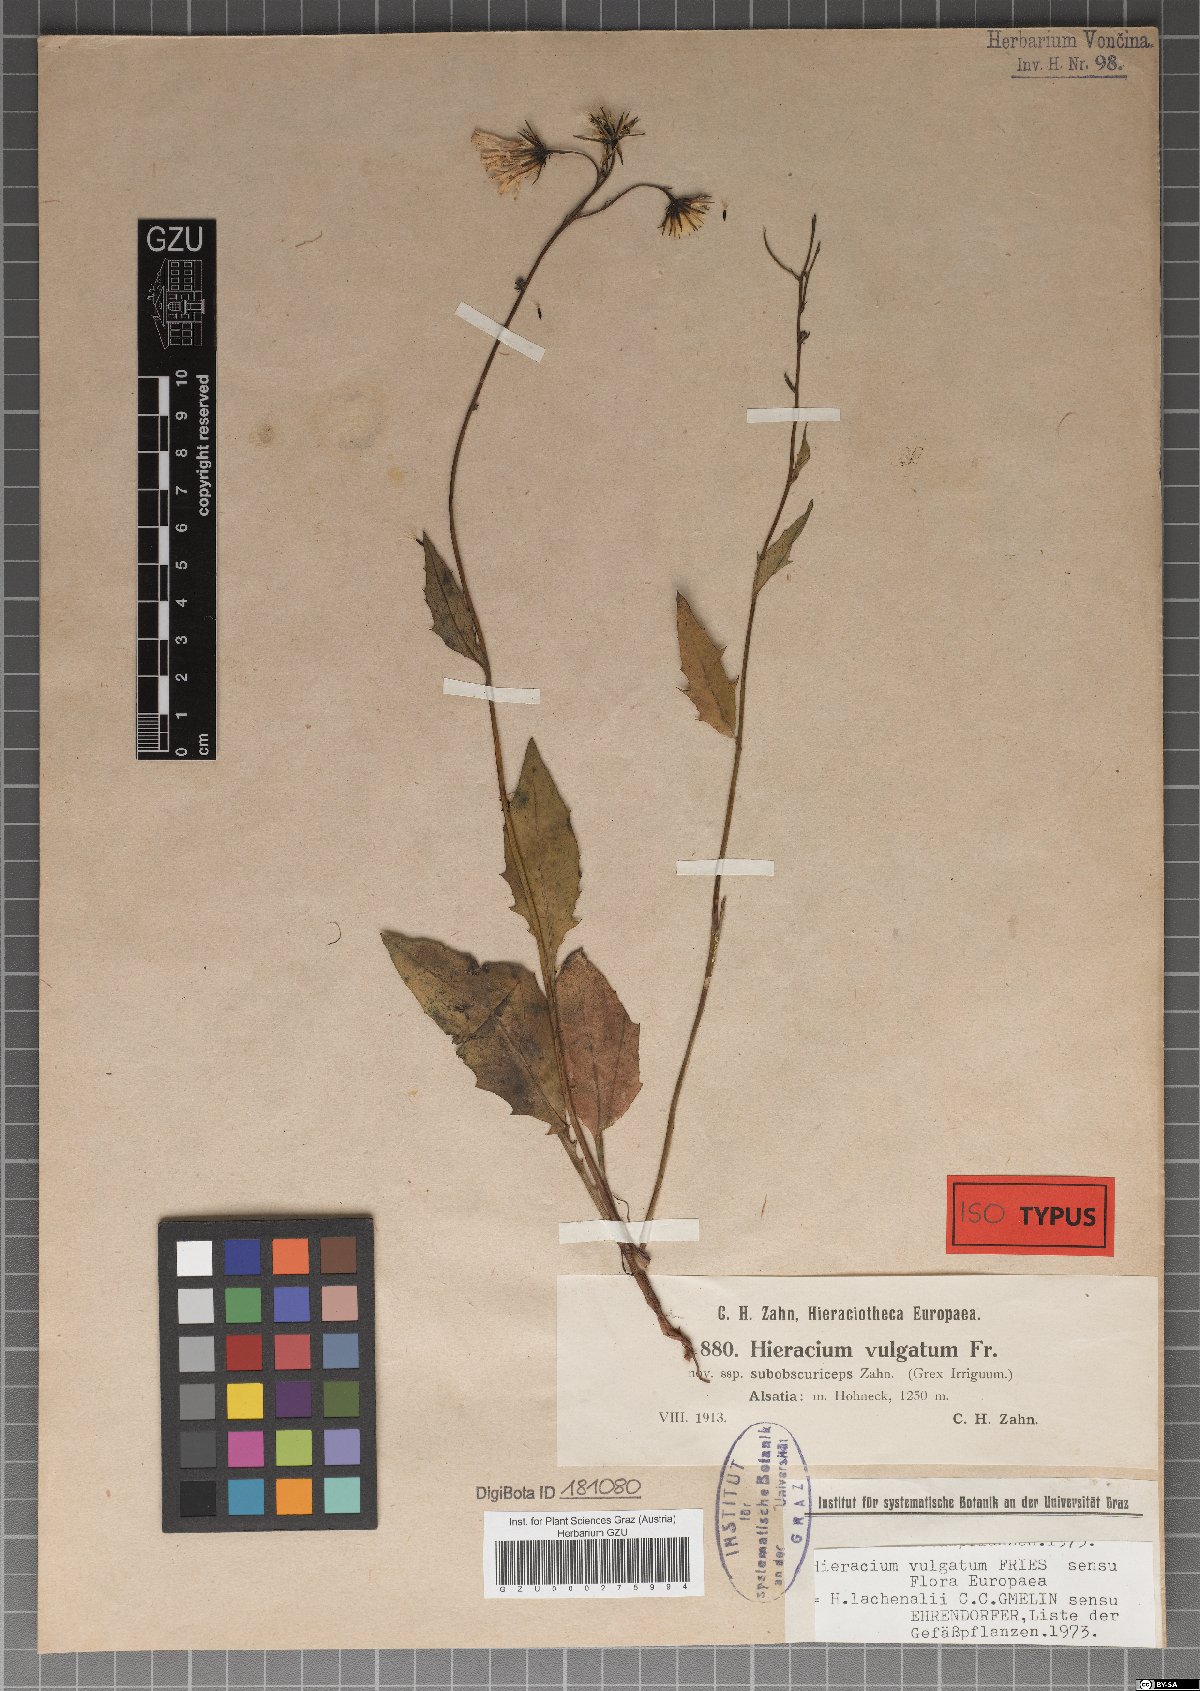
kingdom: Plantae
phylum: Tracheophyta
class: Magnoliopsida
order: Asterales
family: Asteraceae
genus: Hieracium
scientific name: Hieracium lachenalii
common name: Common hawkweed
